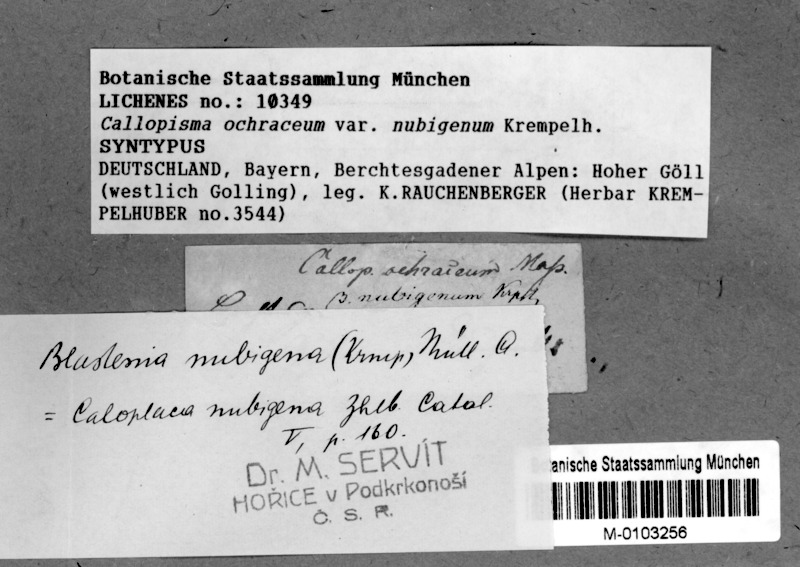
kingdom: Fungi
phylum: Ascomycota
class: Lecanoromycetes
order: Teloschistales
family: Teloschistaceae
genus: Caloplaca
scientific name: Caloplaca nubigena
